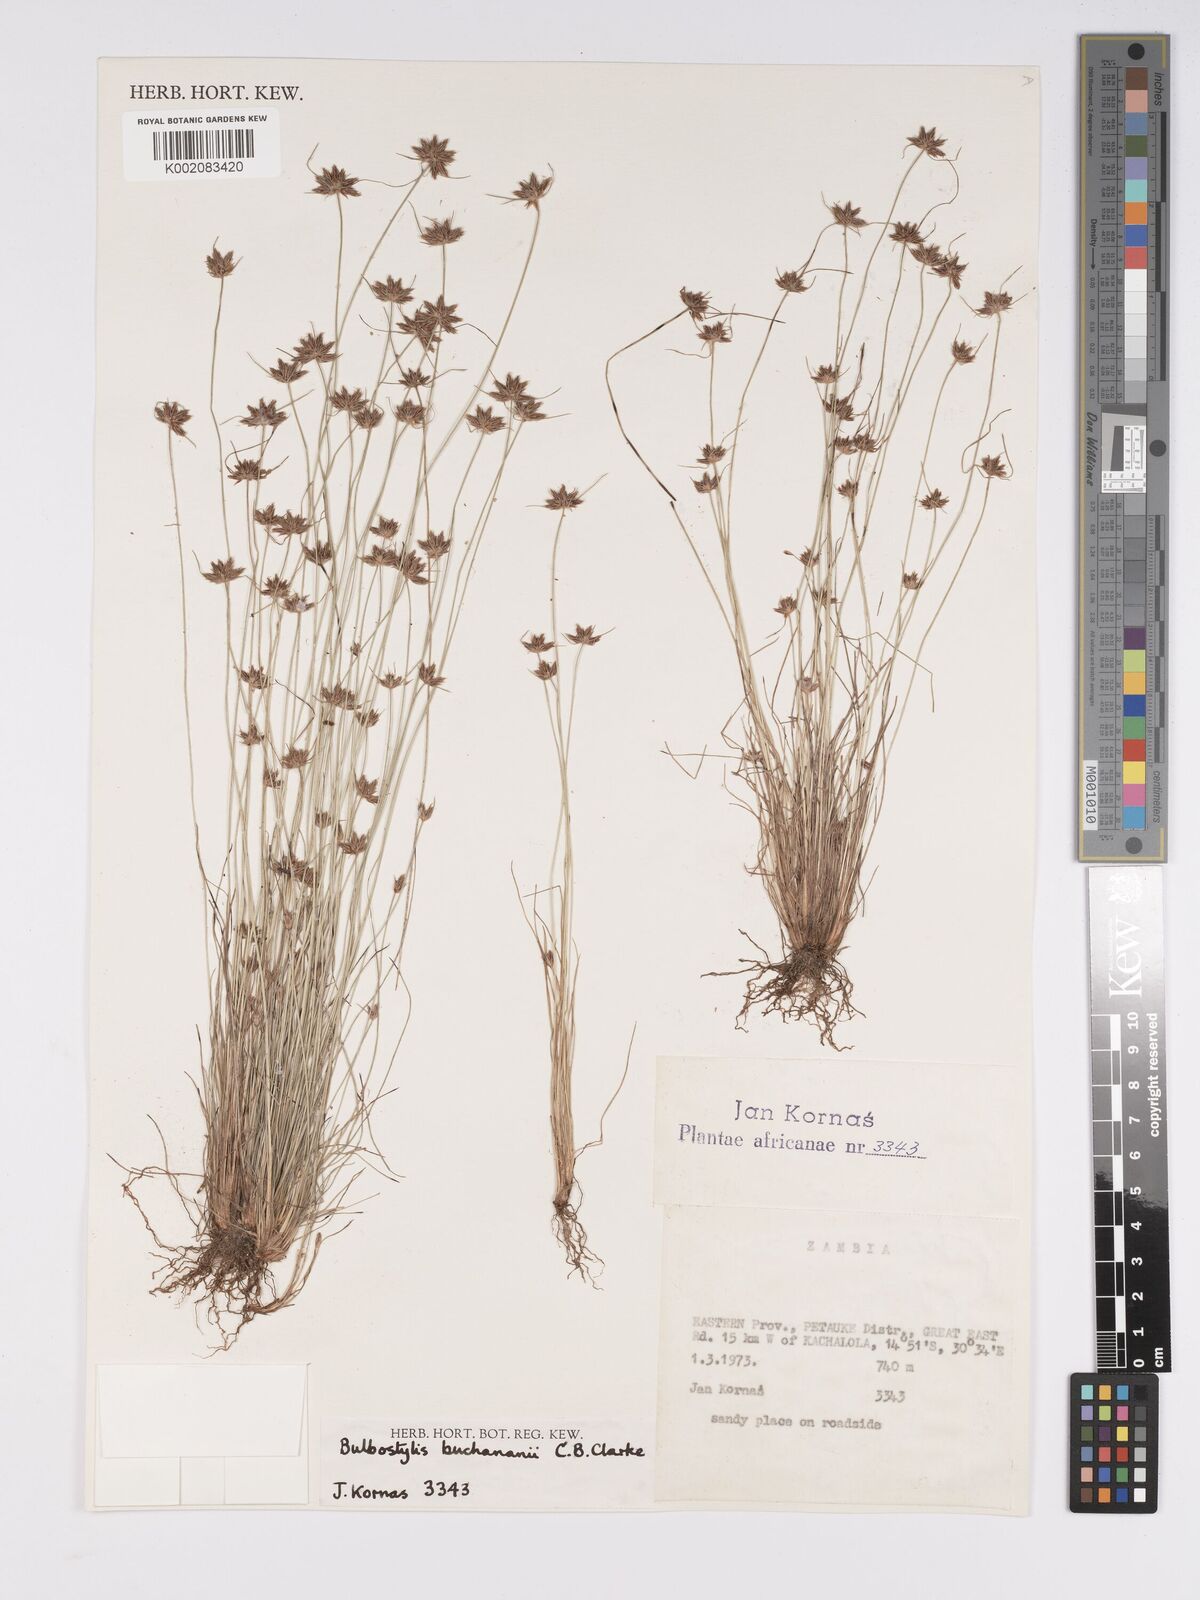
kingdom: Plantae
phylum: Tracheophyta
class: Liliopsida
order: Poales
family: Cyperaceae
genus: Bulbostylis
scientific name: Bulbostylis buchananii
